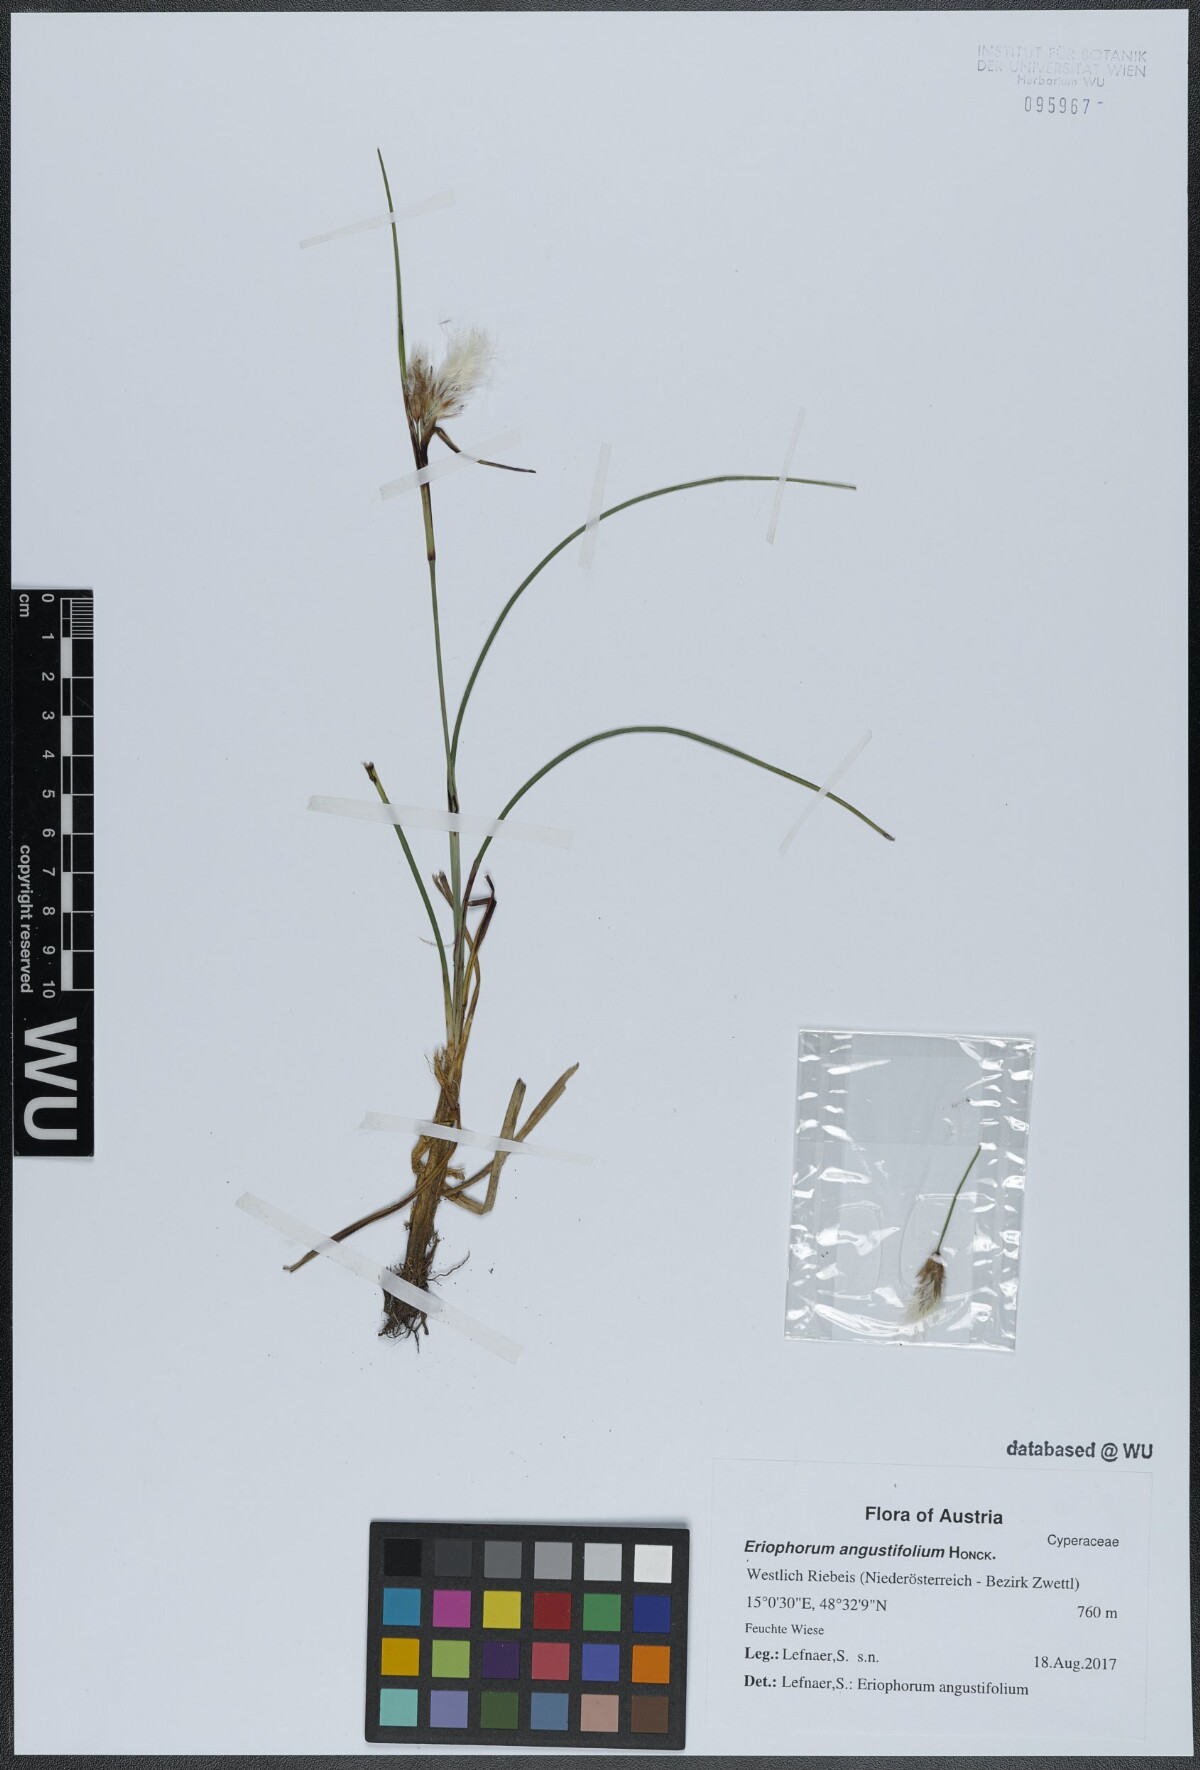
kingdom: Plantae
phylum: Tracheophyta
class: Liliopsida
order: Poales
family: Cyperaceae
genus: Eriophorum
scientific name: Eriophorum angustifolium
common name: Common cottongrass
